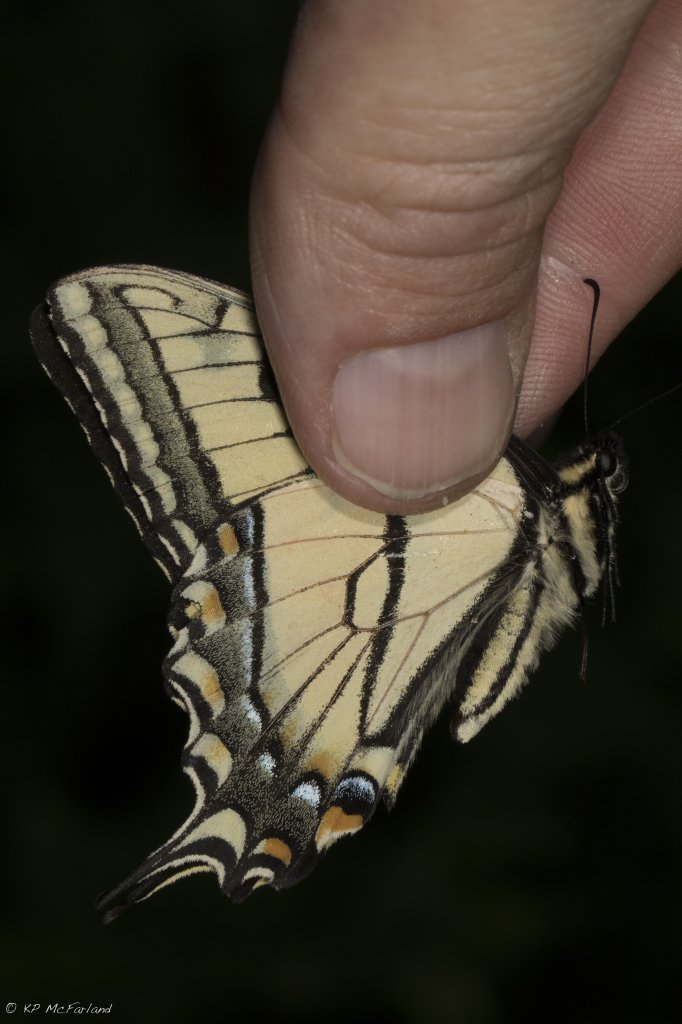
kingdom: Animalia
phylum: Arthropoda
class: Insecta
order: Lepidoptera
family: Papilionidae
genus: Pterourus
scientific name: Pterourus canadensis
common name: Canadian Tiger Swallowtail
